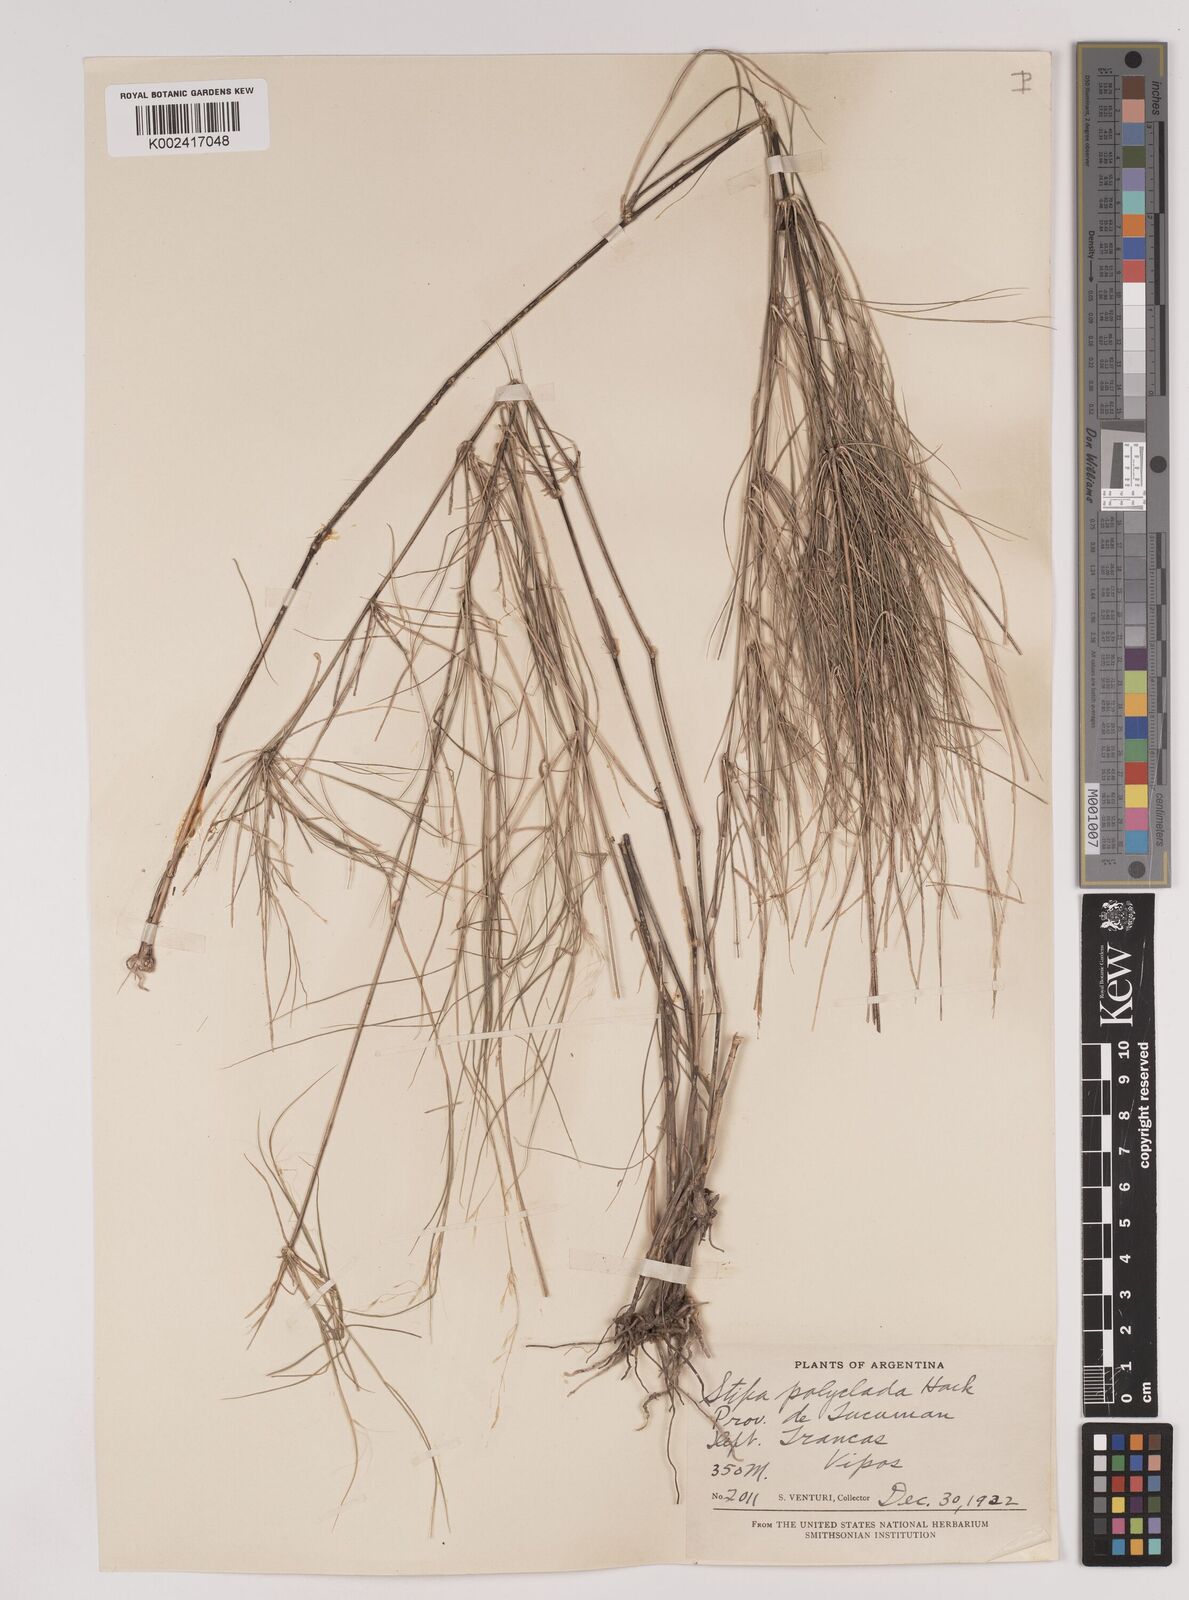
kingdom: Plantae
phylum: Tracheophyta
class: Liliopsida
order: Poales
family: Poaceae
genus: Stipa
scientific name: Stipa polyclada
